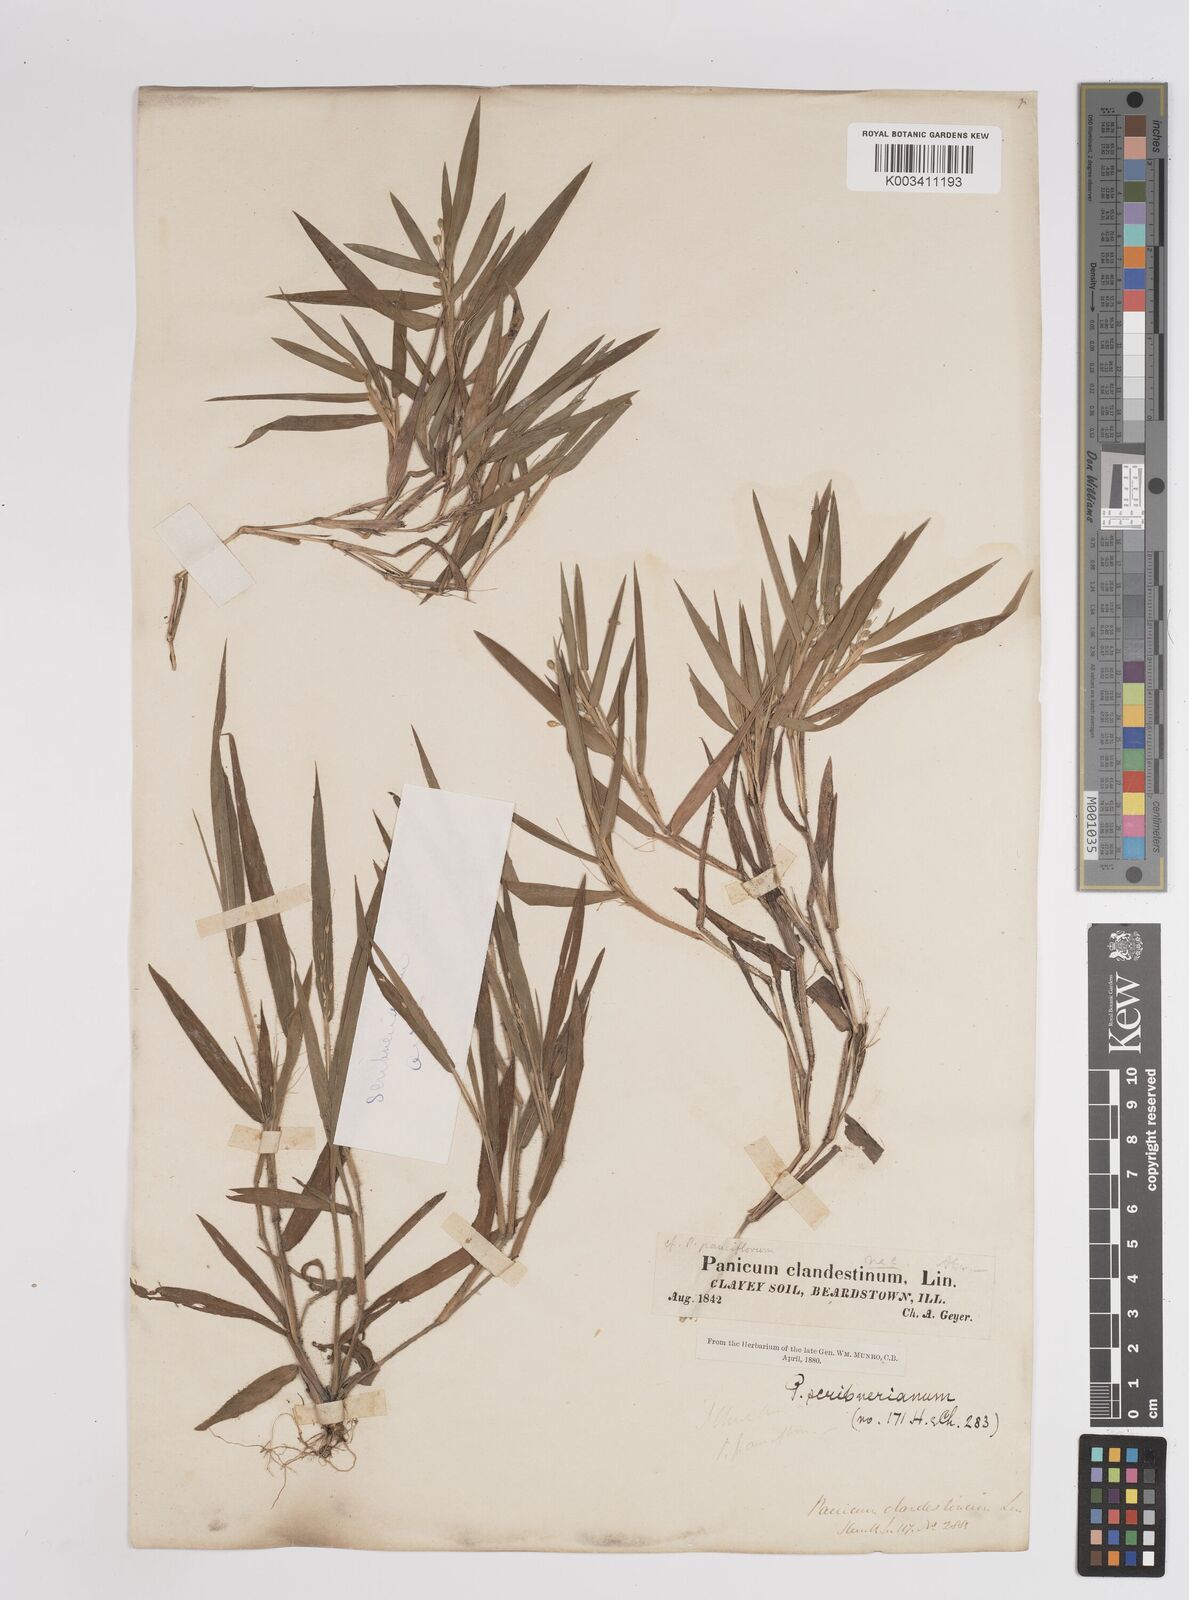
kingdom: Plantae
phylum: Tracheophyta
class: Liliopsida
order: Poales
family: Poaceae
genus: Dichanthelium
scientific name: Dichanthelium oligosanthes
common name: Few-anther obscuregrass
